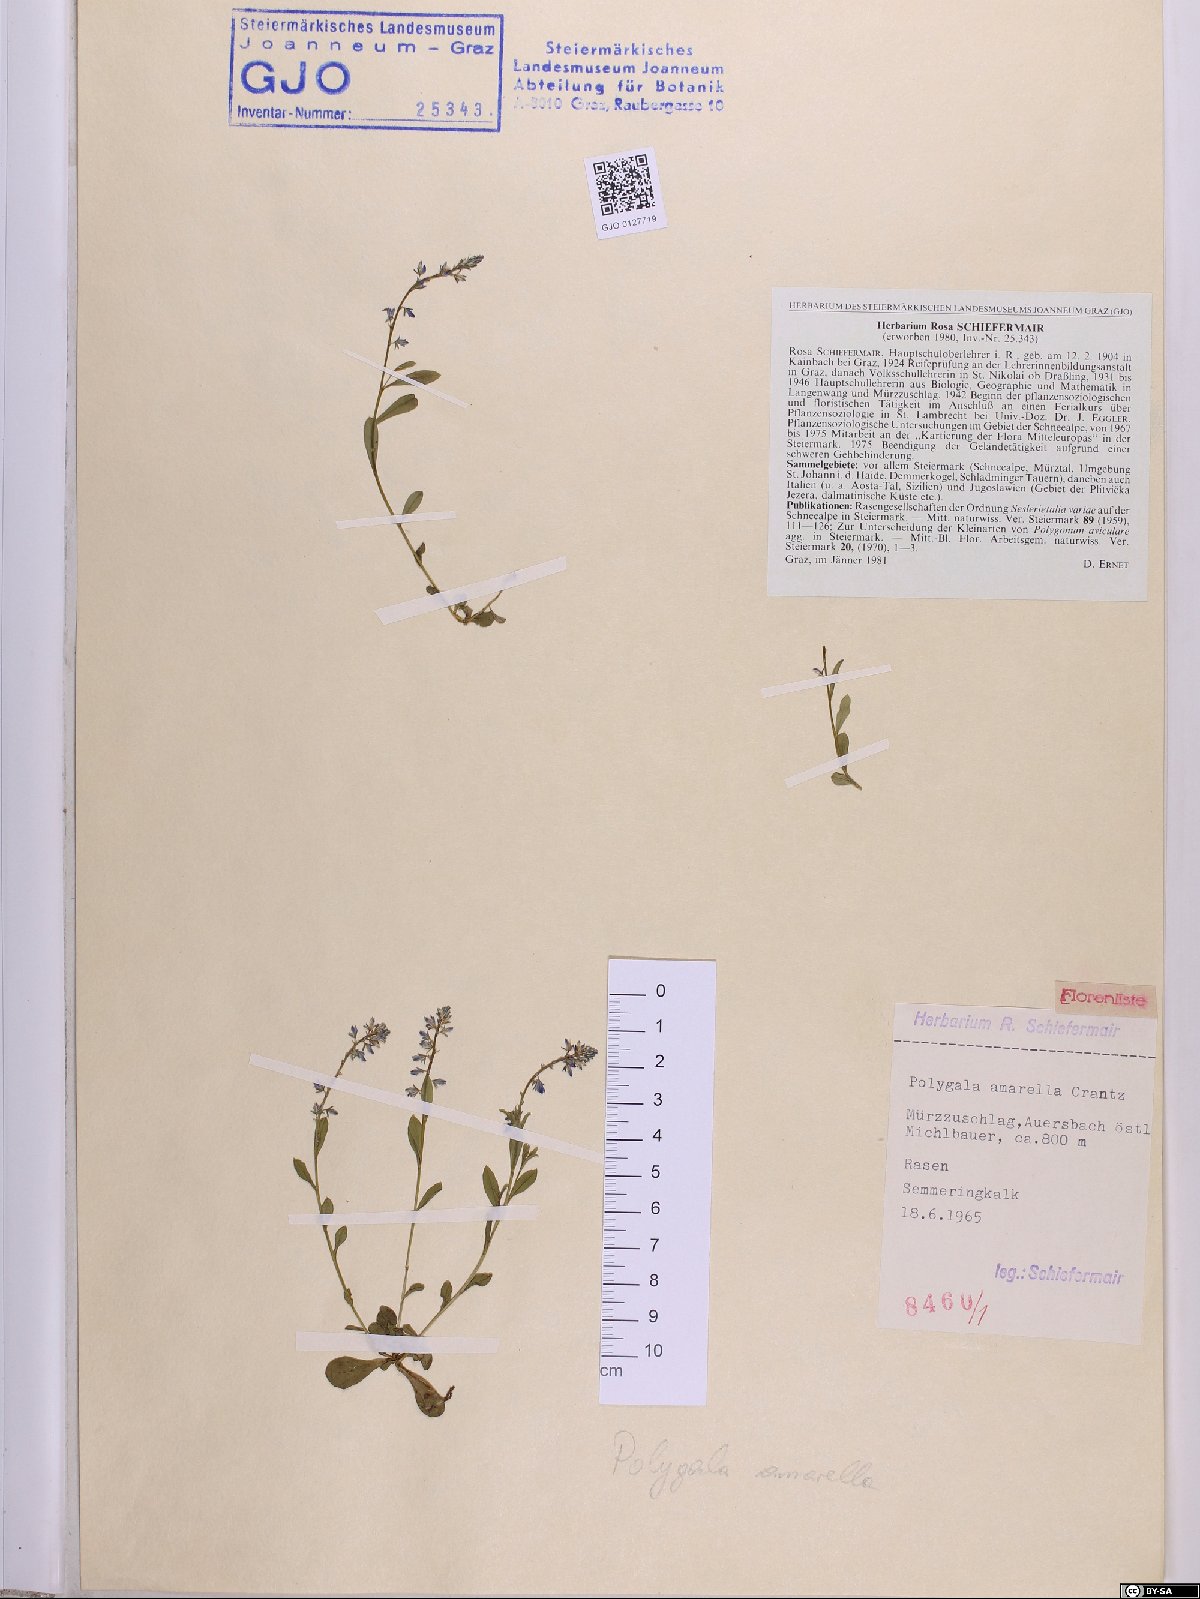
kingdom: Plantae
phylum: Tracheophyta
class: Magnoliopsida
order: Fabales
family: Polygalaceae
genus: Polygala
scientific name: Polygala amarella
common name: Dwarf milkwort
